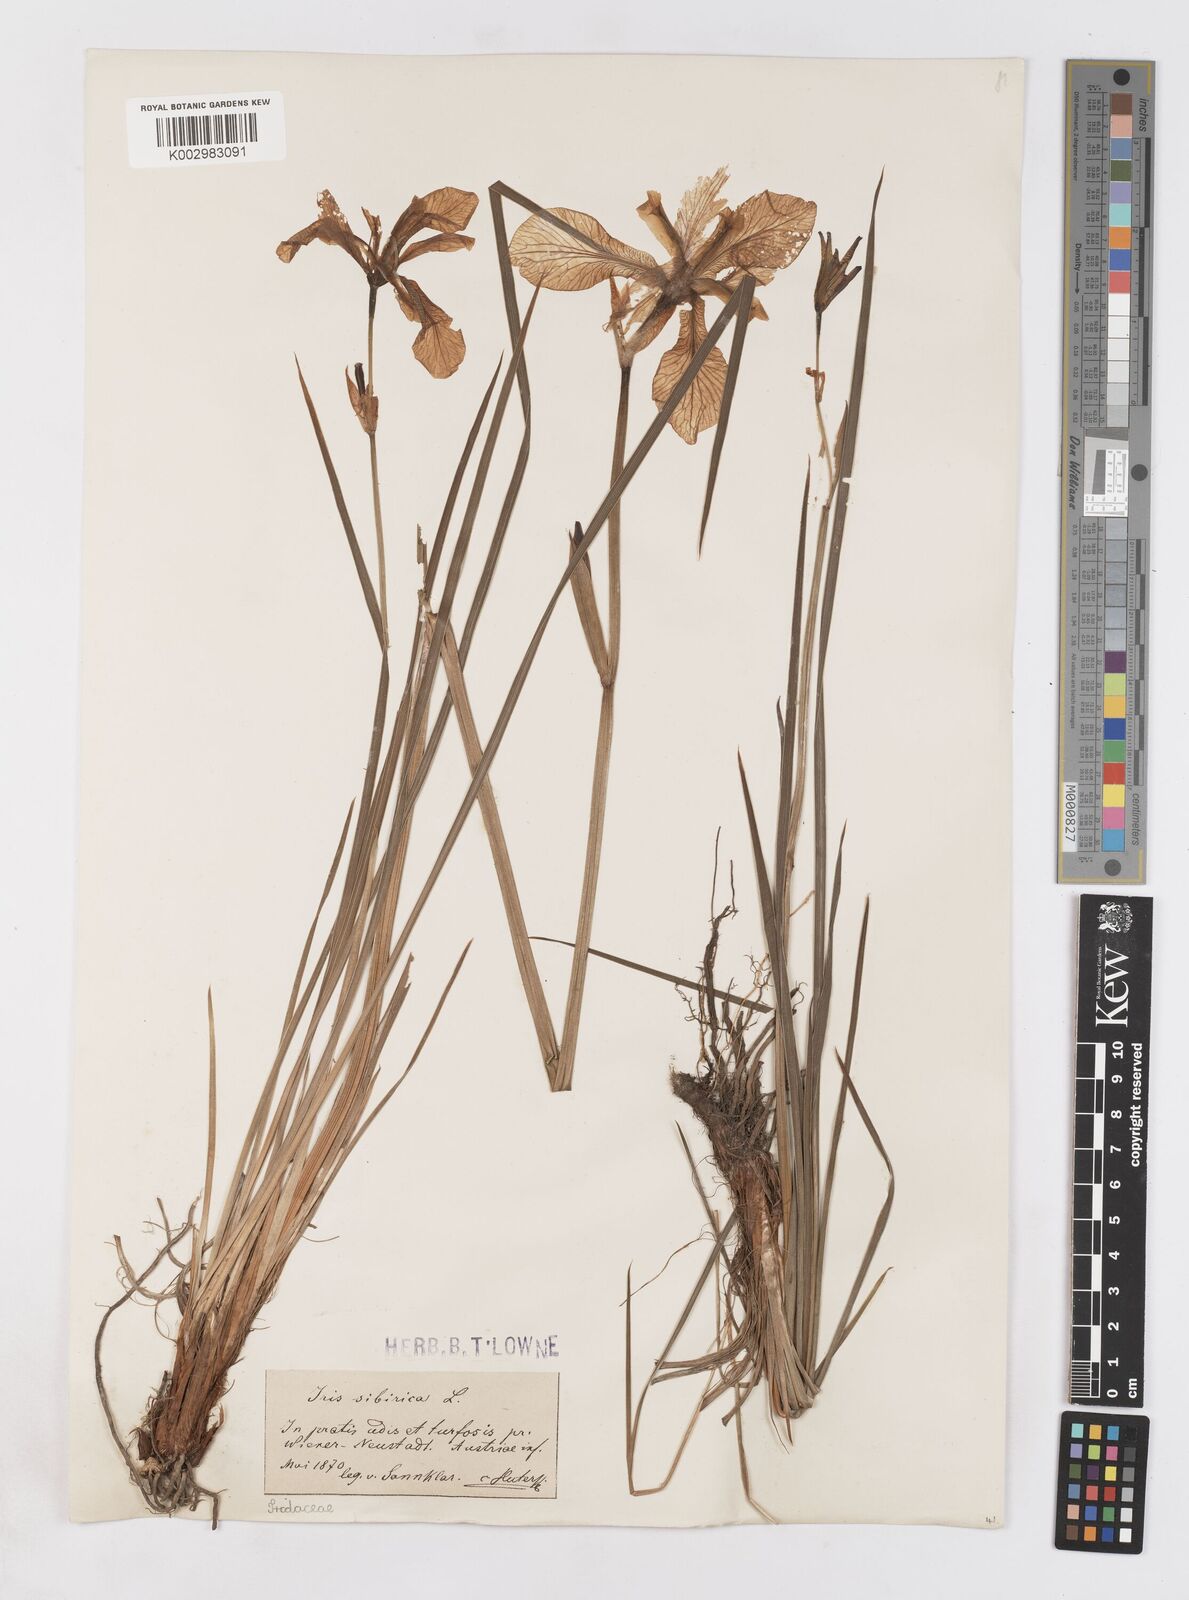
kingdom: Plantae
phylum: Tracheophyta
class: Liliopsida
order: Asparagales
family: Iridaceae
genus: Iris
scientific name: Iris sibirica
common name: Siberian iris
